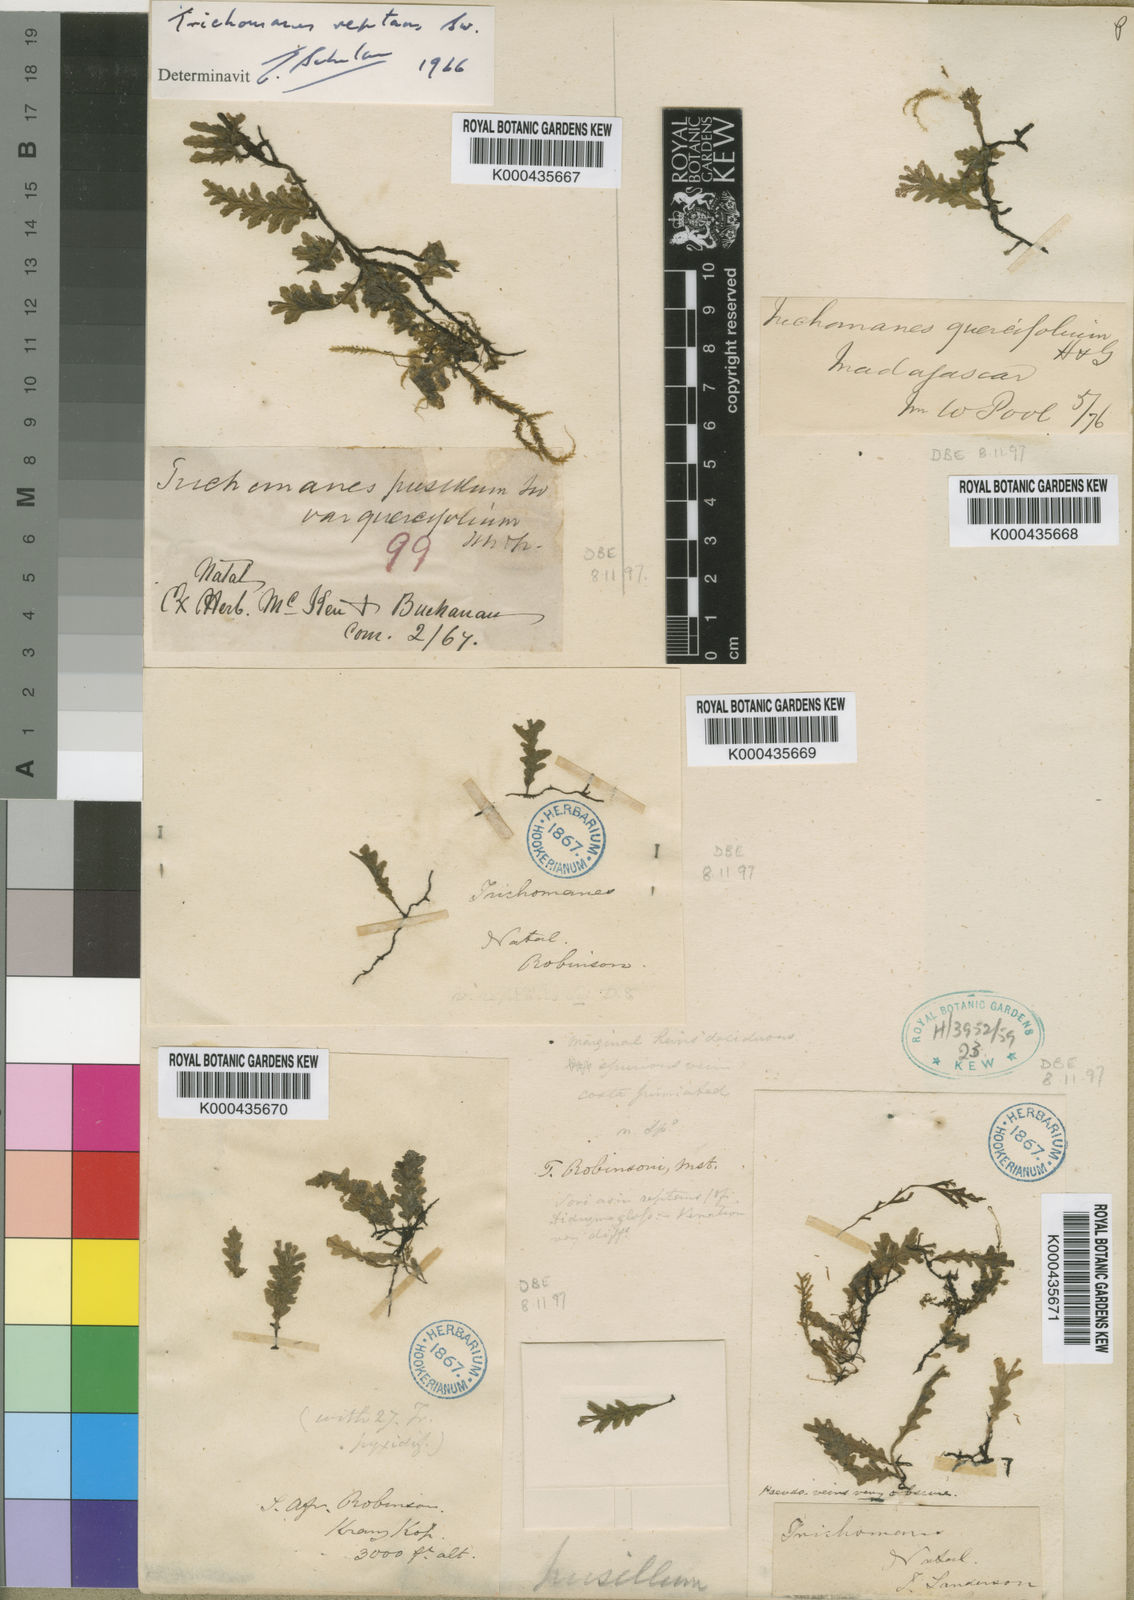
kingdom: Plantae
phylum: Tracheophyta
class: Polypodiopsida
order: Hymenophyllales
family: Hymenophyllaceae
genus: Didymoglossum
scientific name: Didymoglossum reptans
